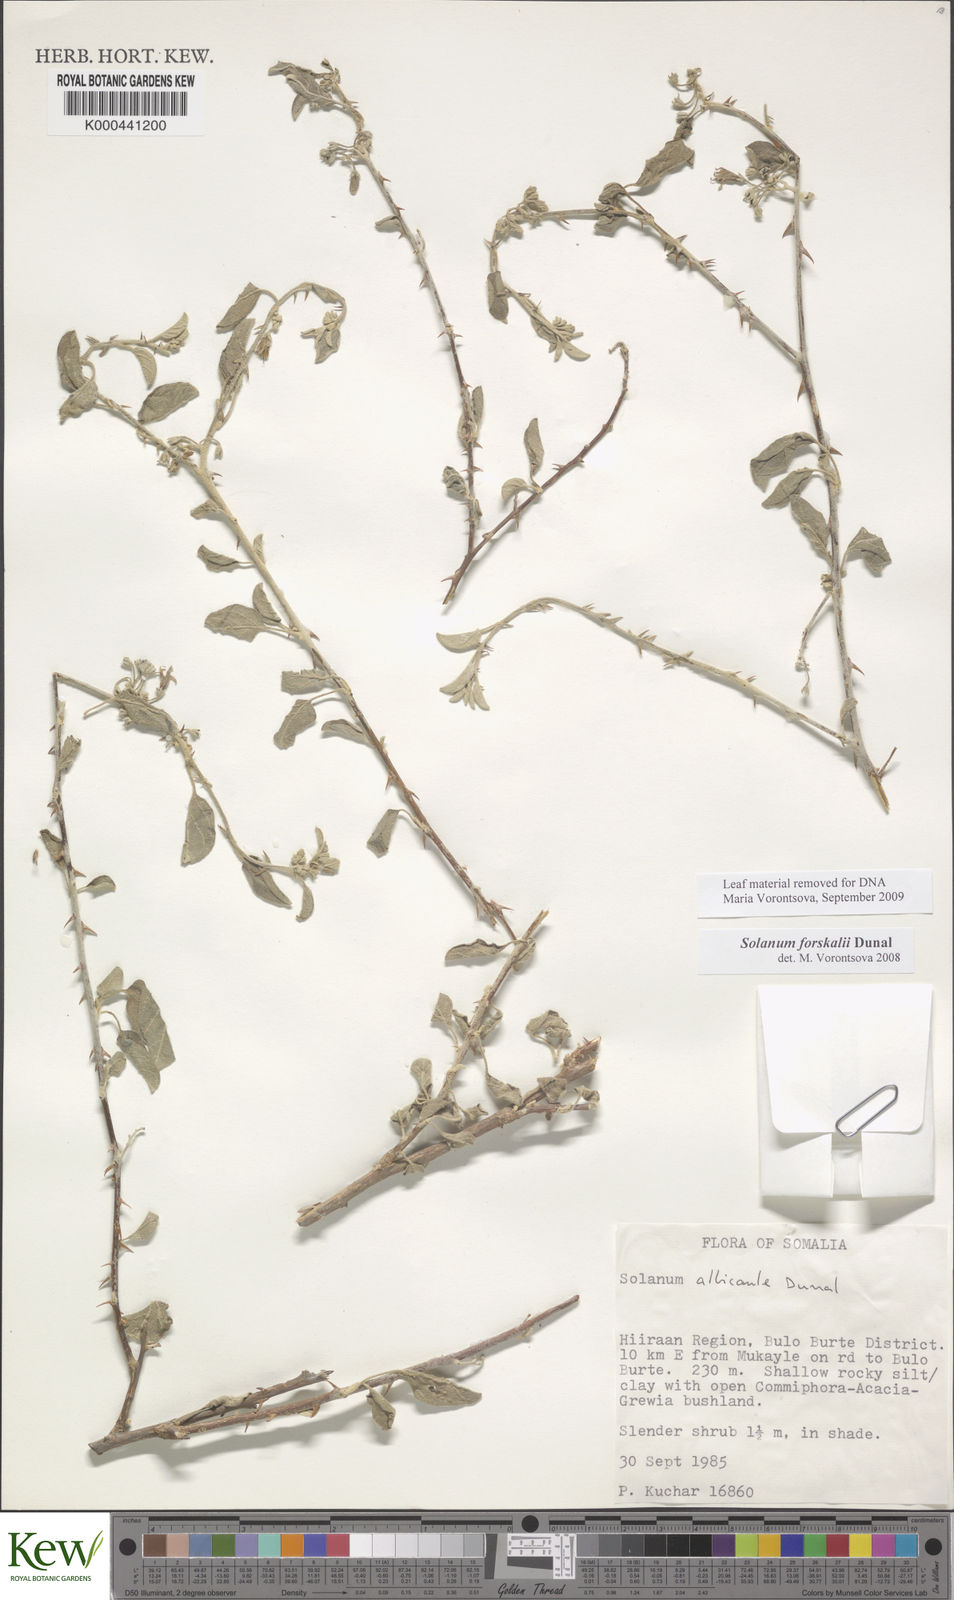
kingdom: Plantae
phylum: Tracheophyta
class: Magnoliopsida
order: Solanales
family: Solanaceae
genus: Solanum
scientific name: Solanum
